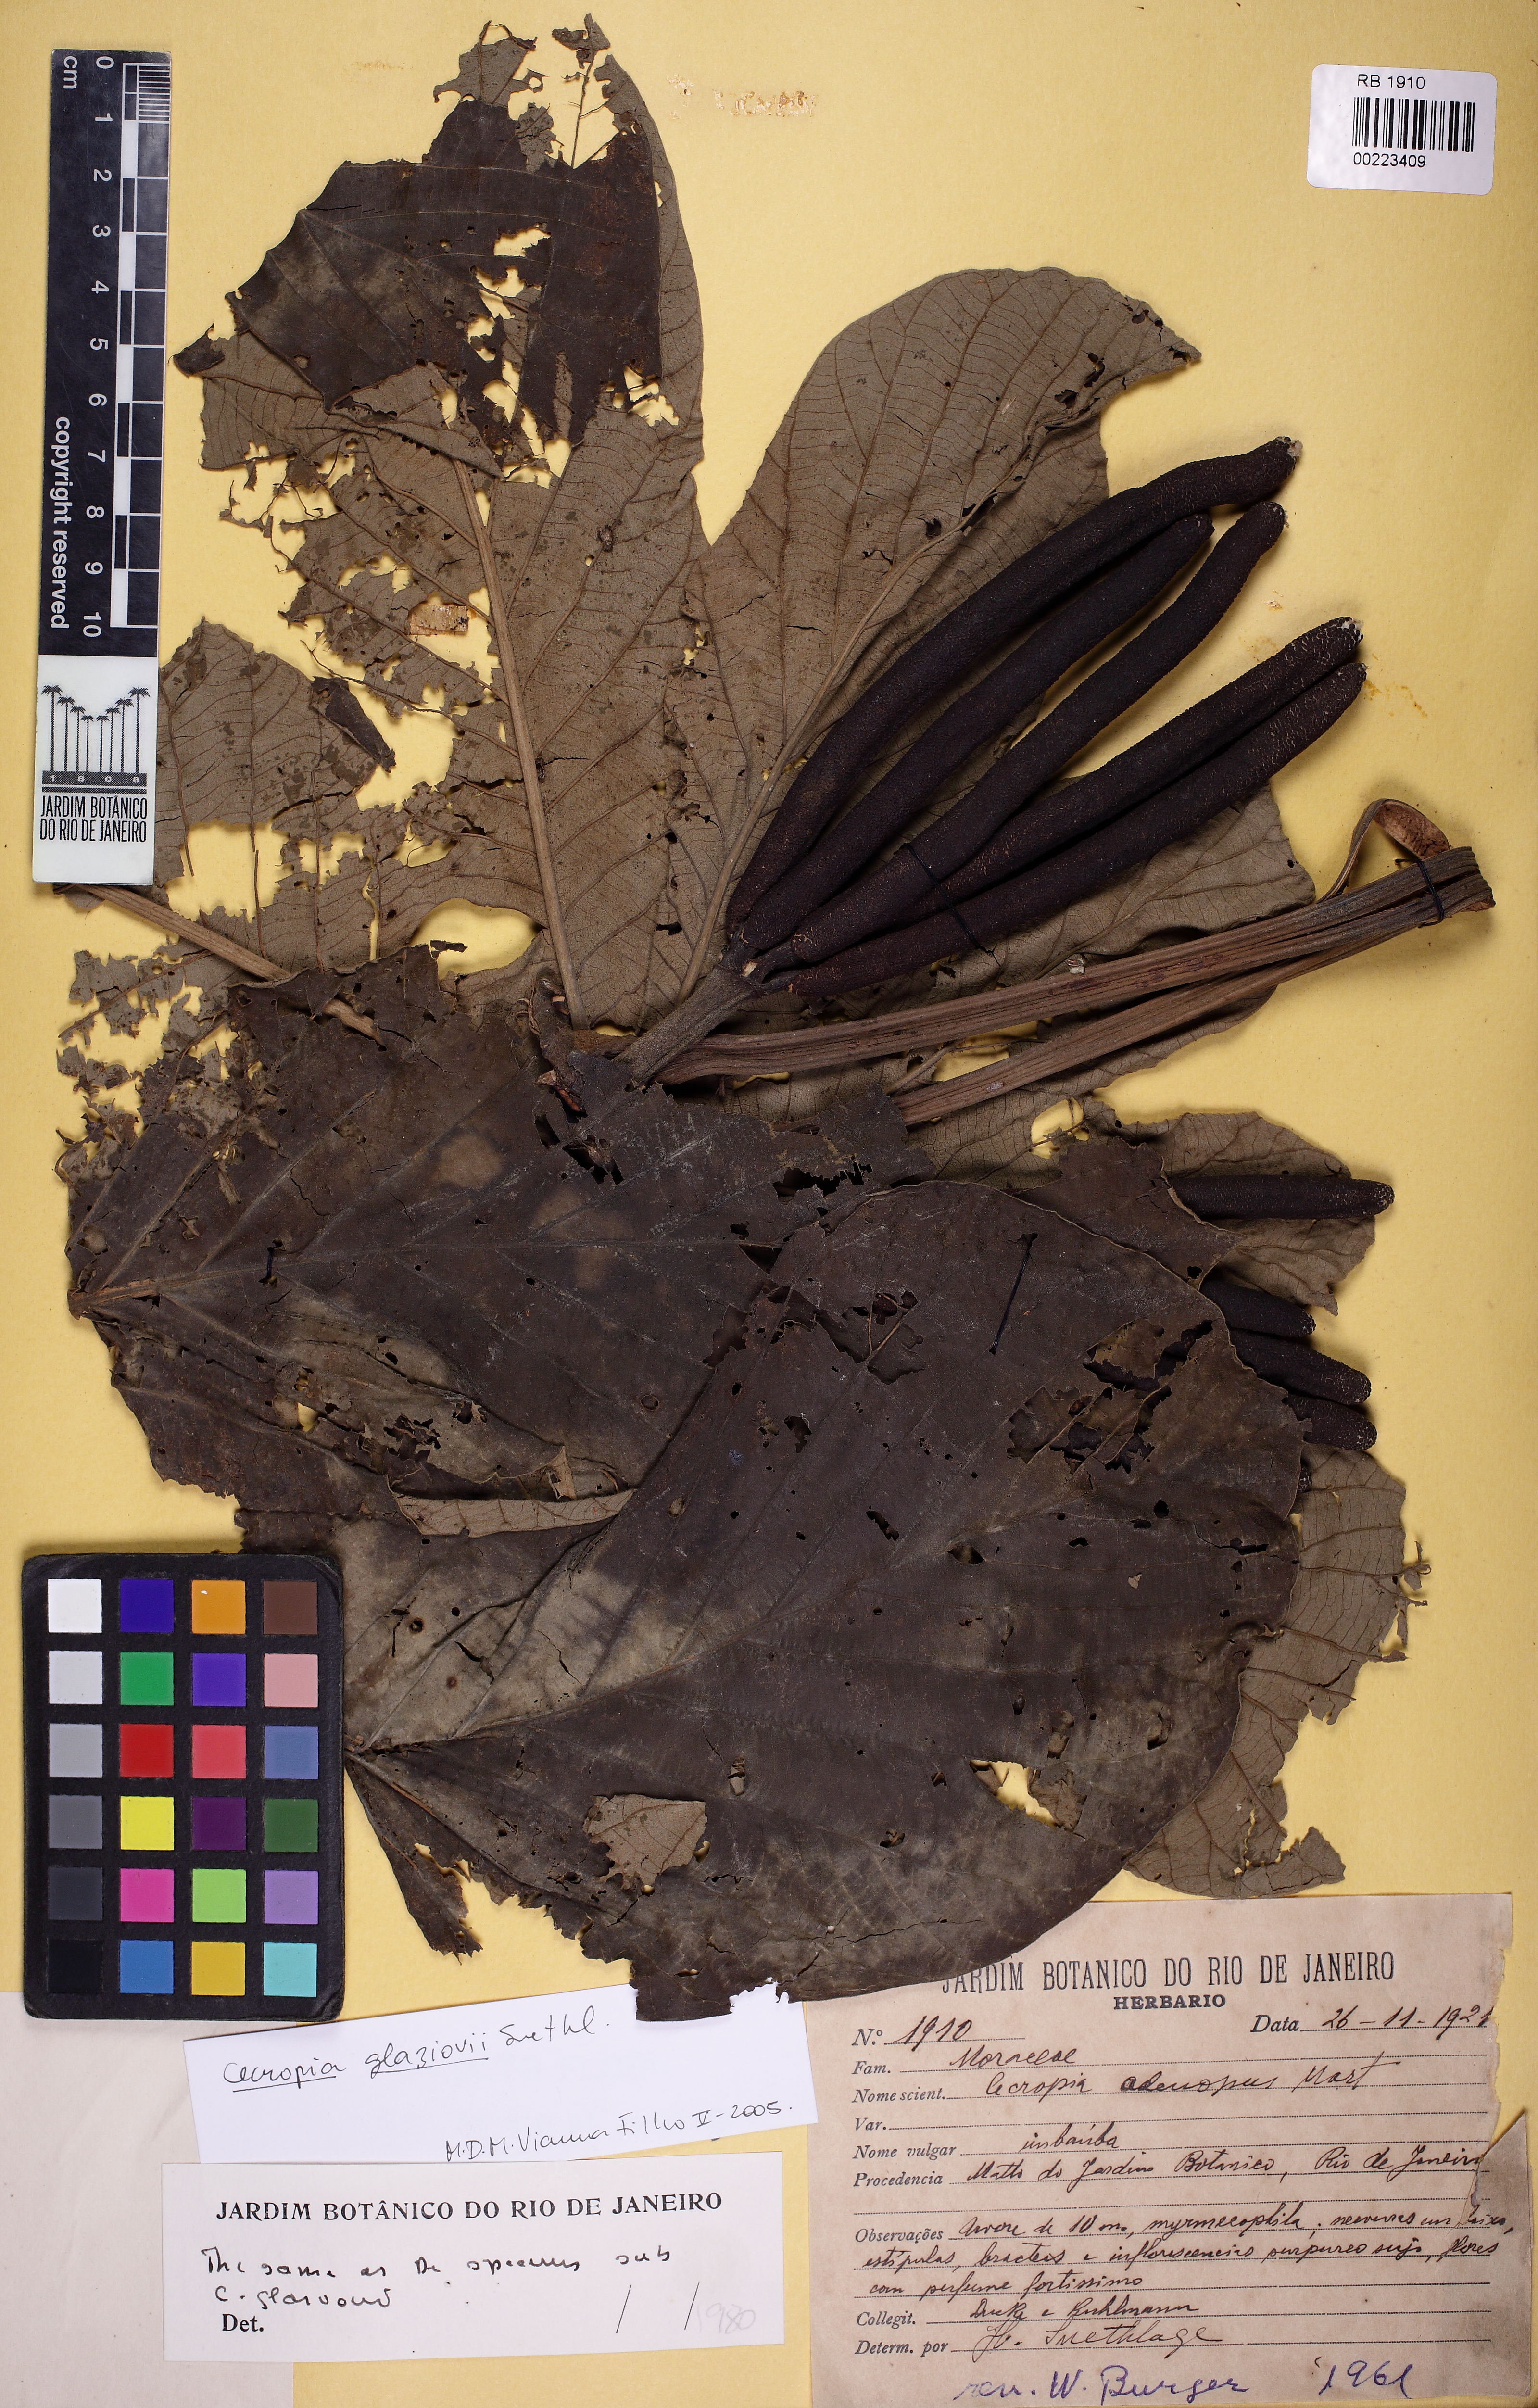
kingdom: Plantae
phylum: Tracheophyta
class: Magnoliopsida
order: Rosales
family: Urticaceae
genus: Cecropia
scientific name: Cecropia glaziovii
